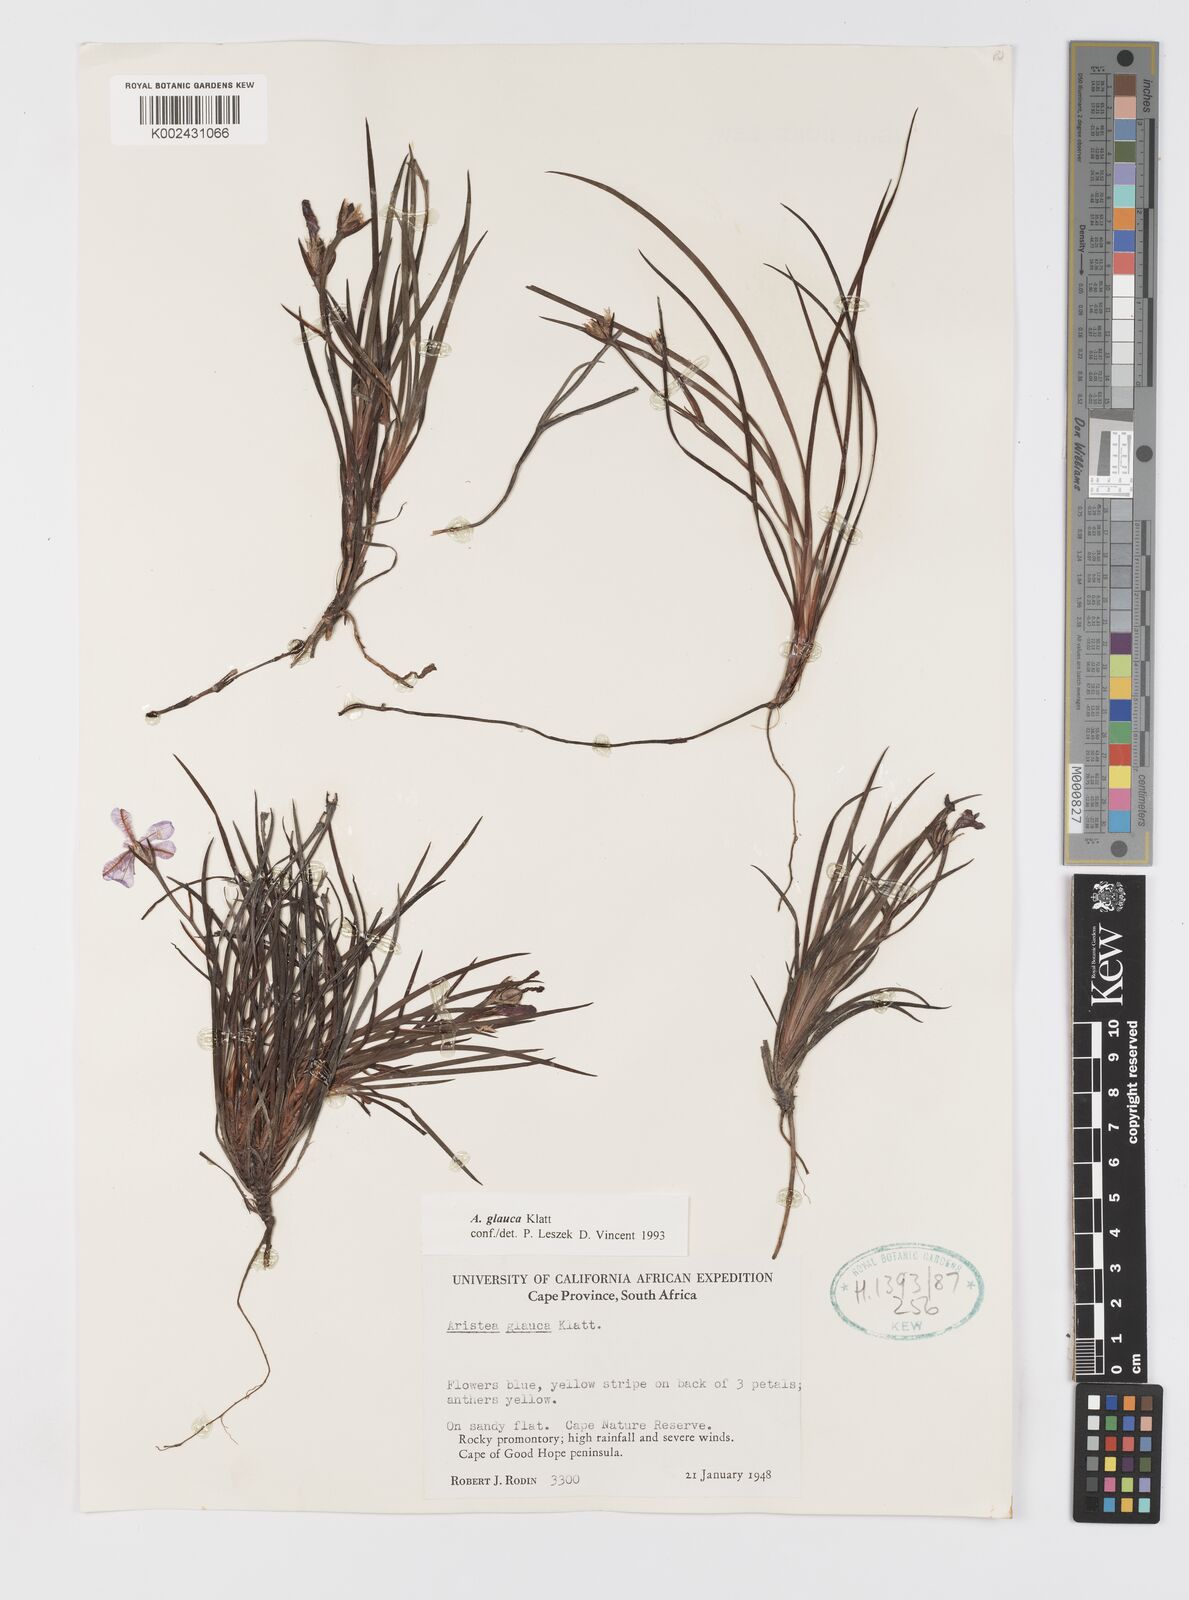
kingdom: Plantae
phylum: Tracheophyta
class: Liliopsida
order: Asparagales
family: Iridaceae
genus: Aristea
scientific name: Aristea glauca
